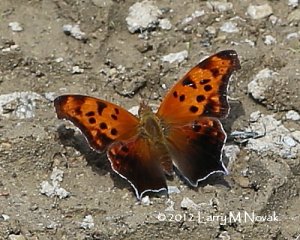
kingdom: Animalia
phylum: Arthropoda
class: Insecta
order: Lepidoptera
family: Nymphalidae
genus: Polygonia
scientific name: Polygonia interrogationis
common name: Question Mark
